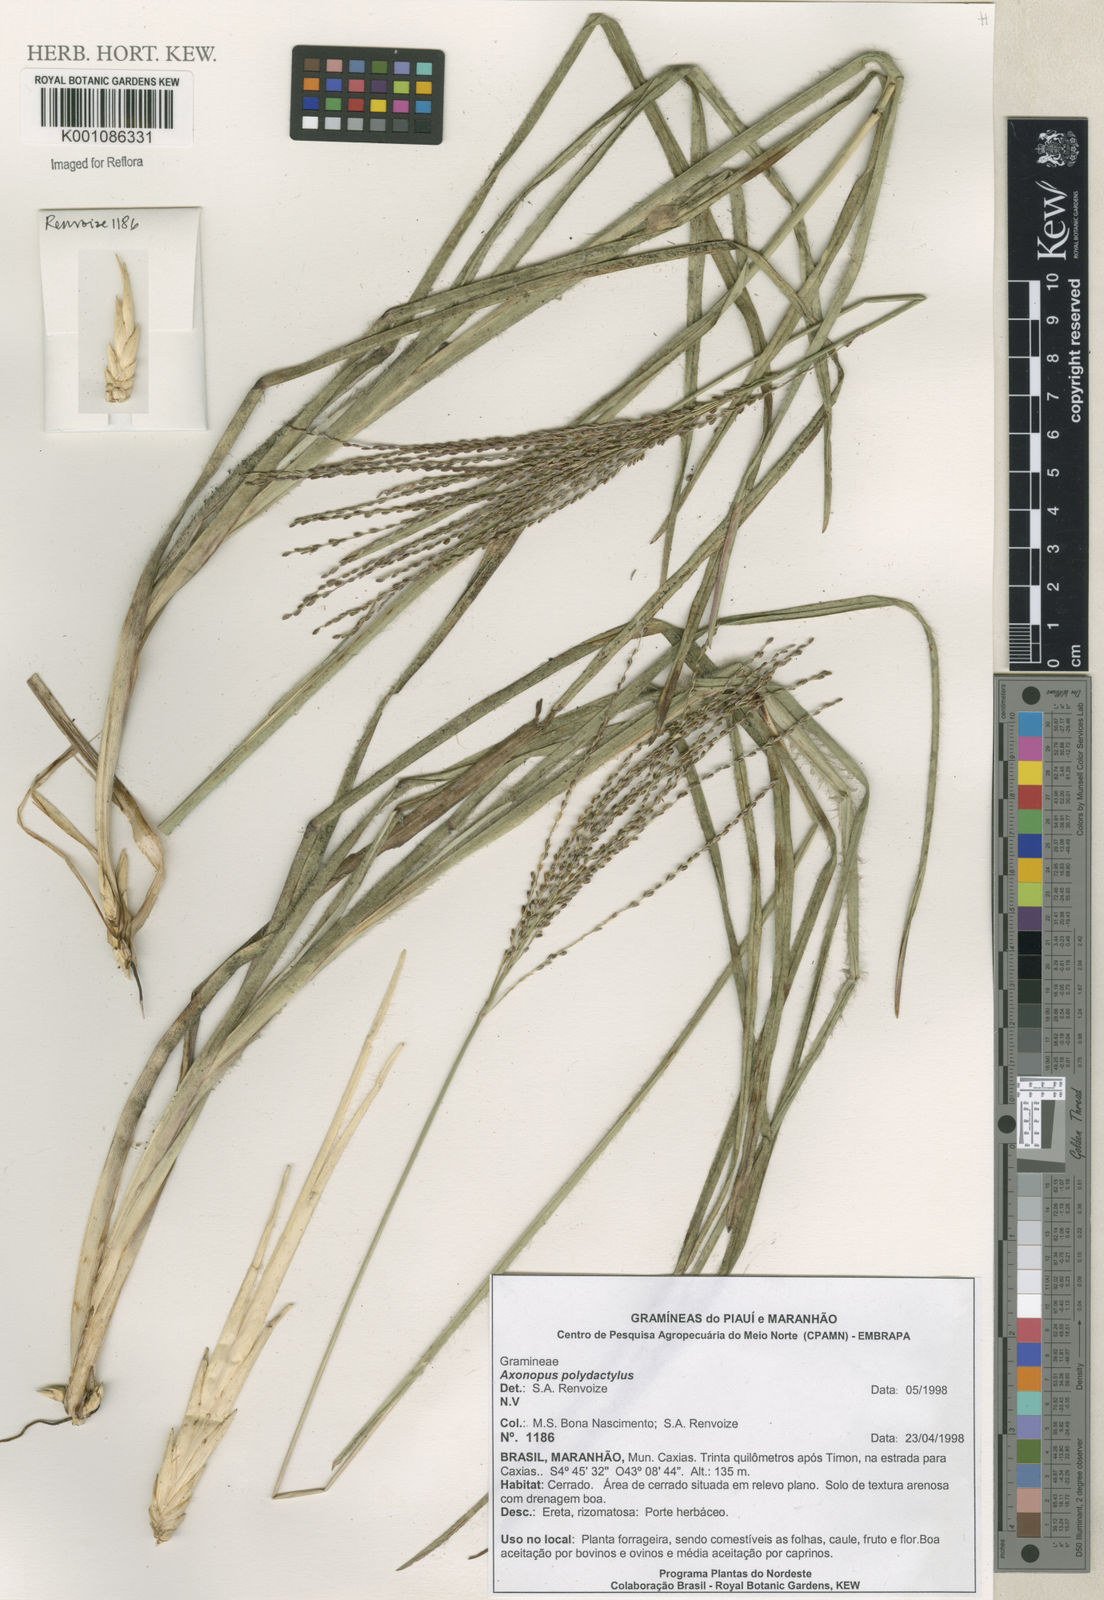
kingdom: Plantae
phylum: Tracheophyta
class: Liliopsida
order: Poales
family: Poaceae
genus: Axonopus
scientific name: Axonopus polydactylus
